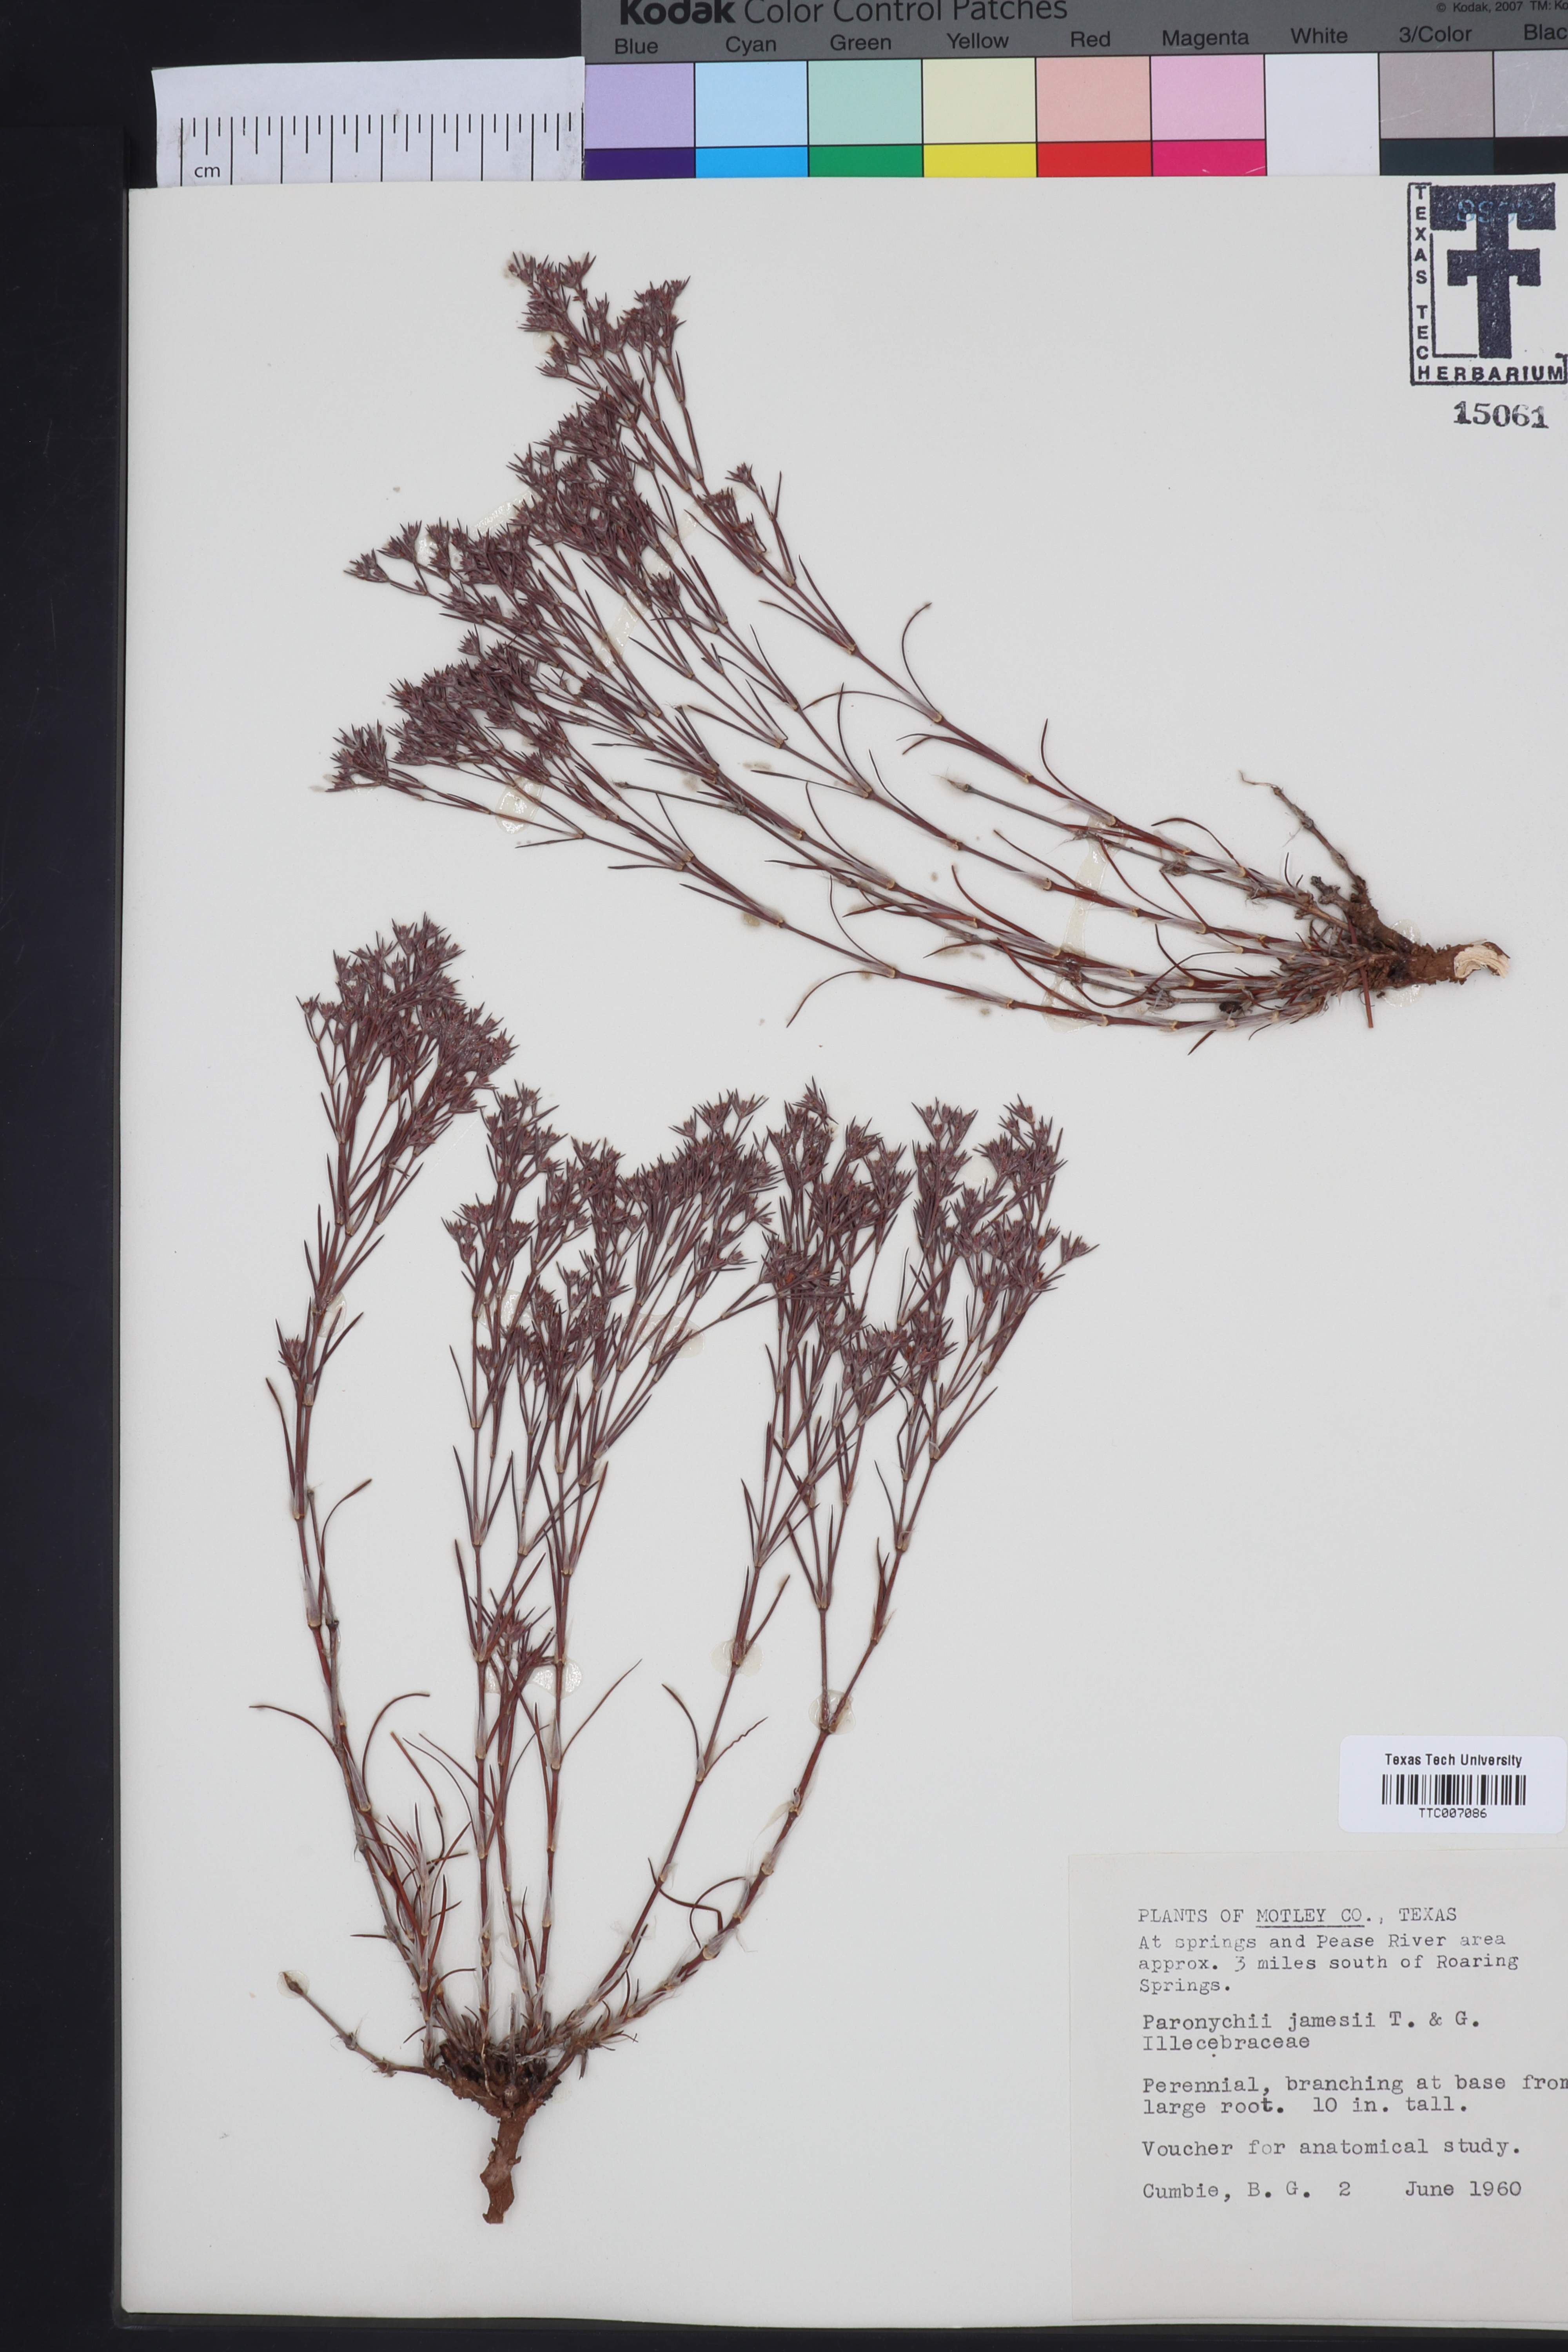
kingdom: Plantae
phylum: Tracheophyta
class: Magnoliopsida
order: Caryophyllales
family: Caryophyllaceae
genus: Paronychia
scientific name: Paronychia jamesii
